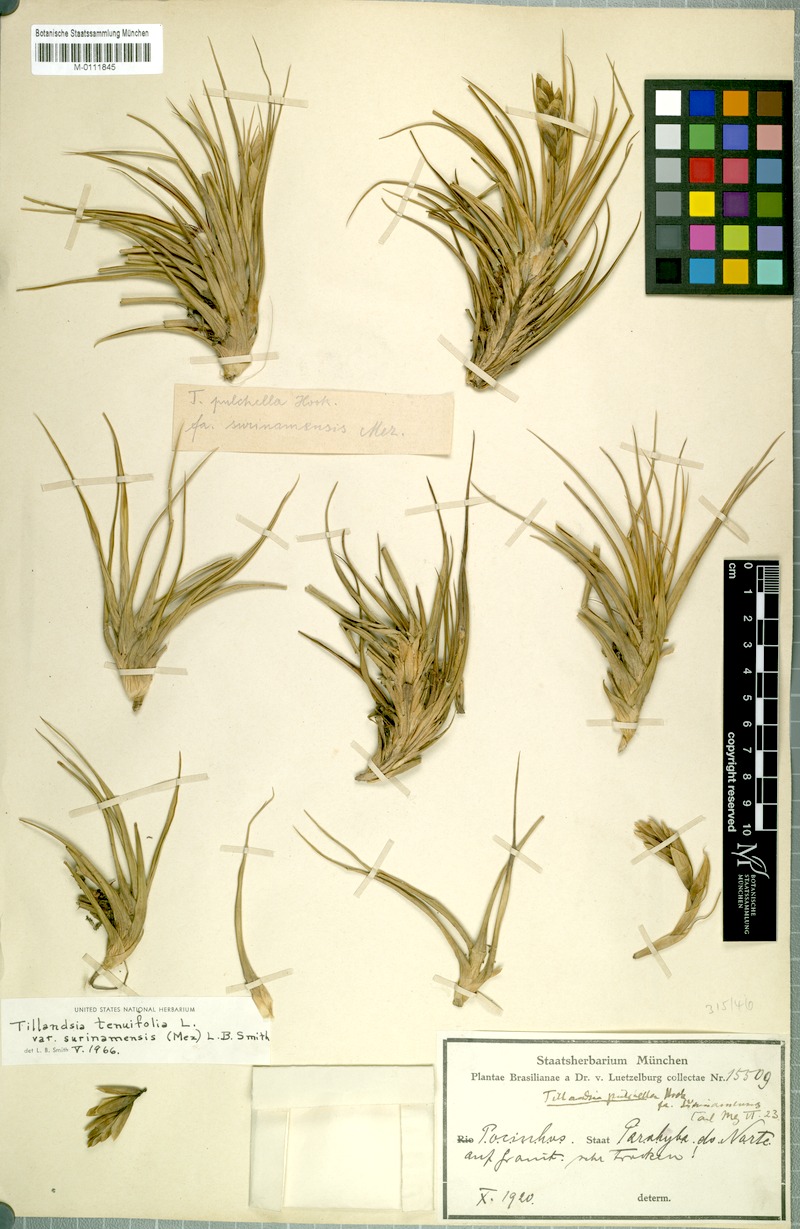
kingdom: Plantae
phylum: Tracheophyta
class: Liliopsida
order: Poales
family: Bromeliaceae
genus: Tillandsia
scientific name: Tillandsia tenuifolia
